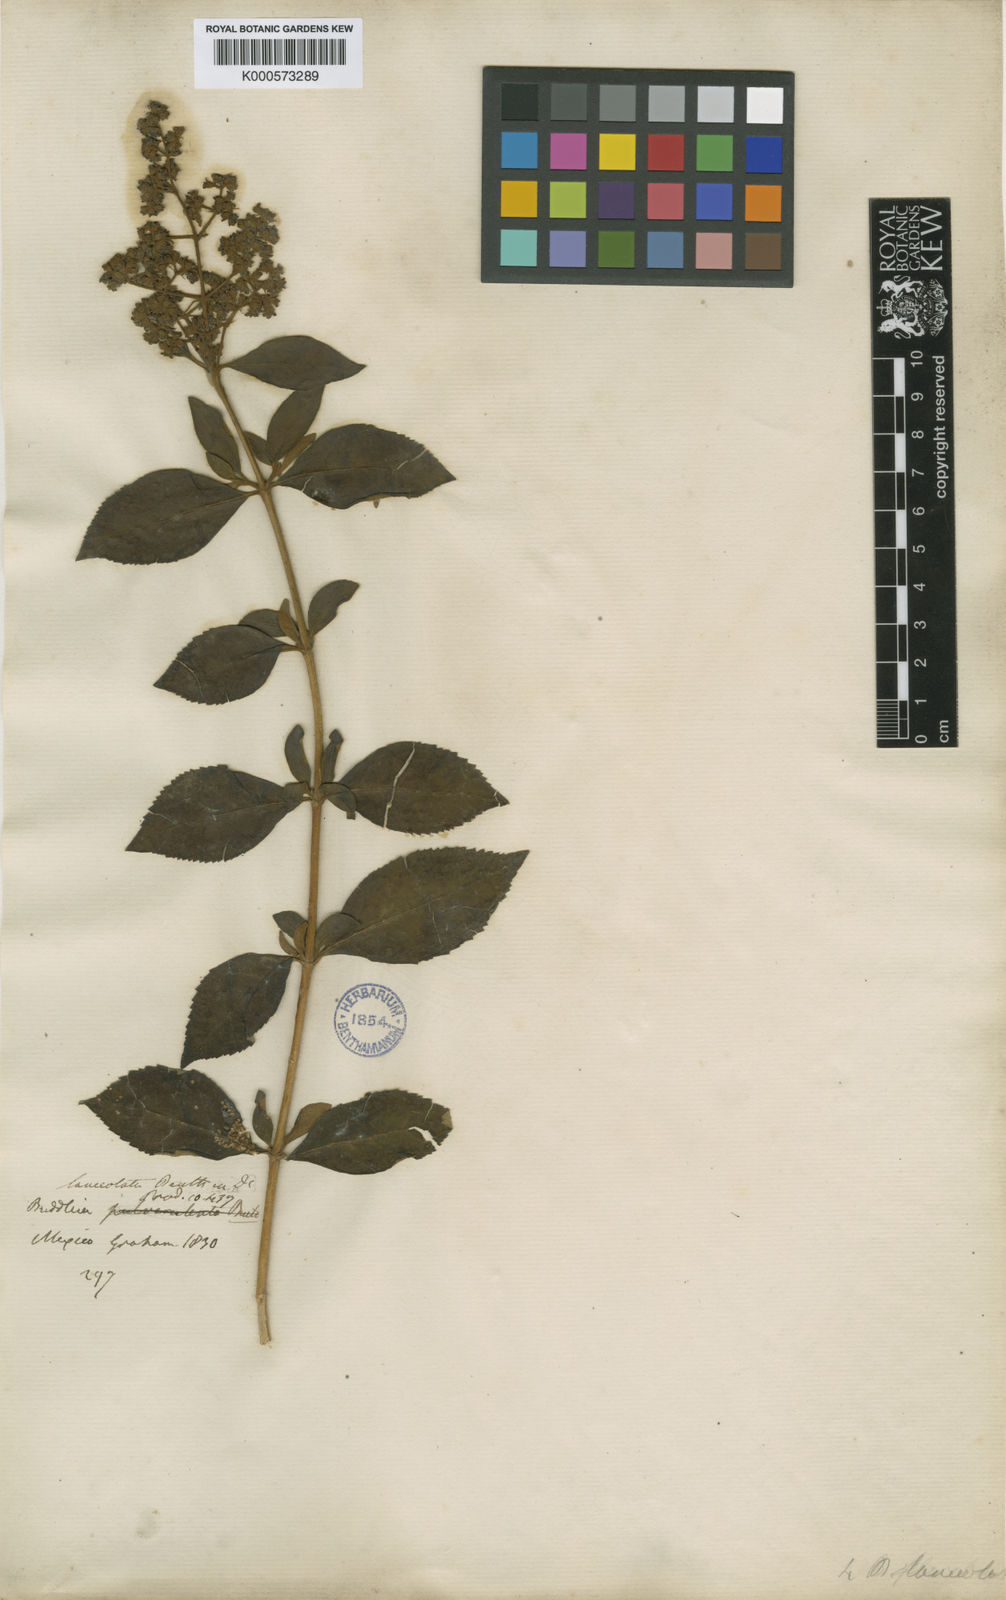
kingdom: Plantae
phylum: Tracheophyta
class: Magnoliopsida
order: Lamiales
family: Scrophulariaceae
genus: Buddleja
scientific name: Buddleja parviflora
